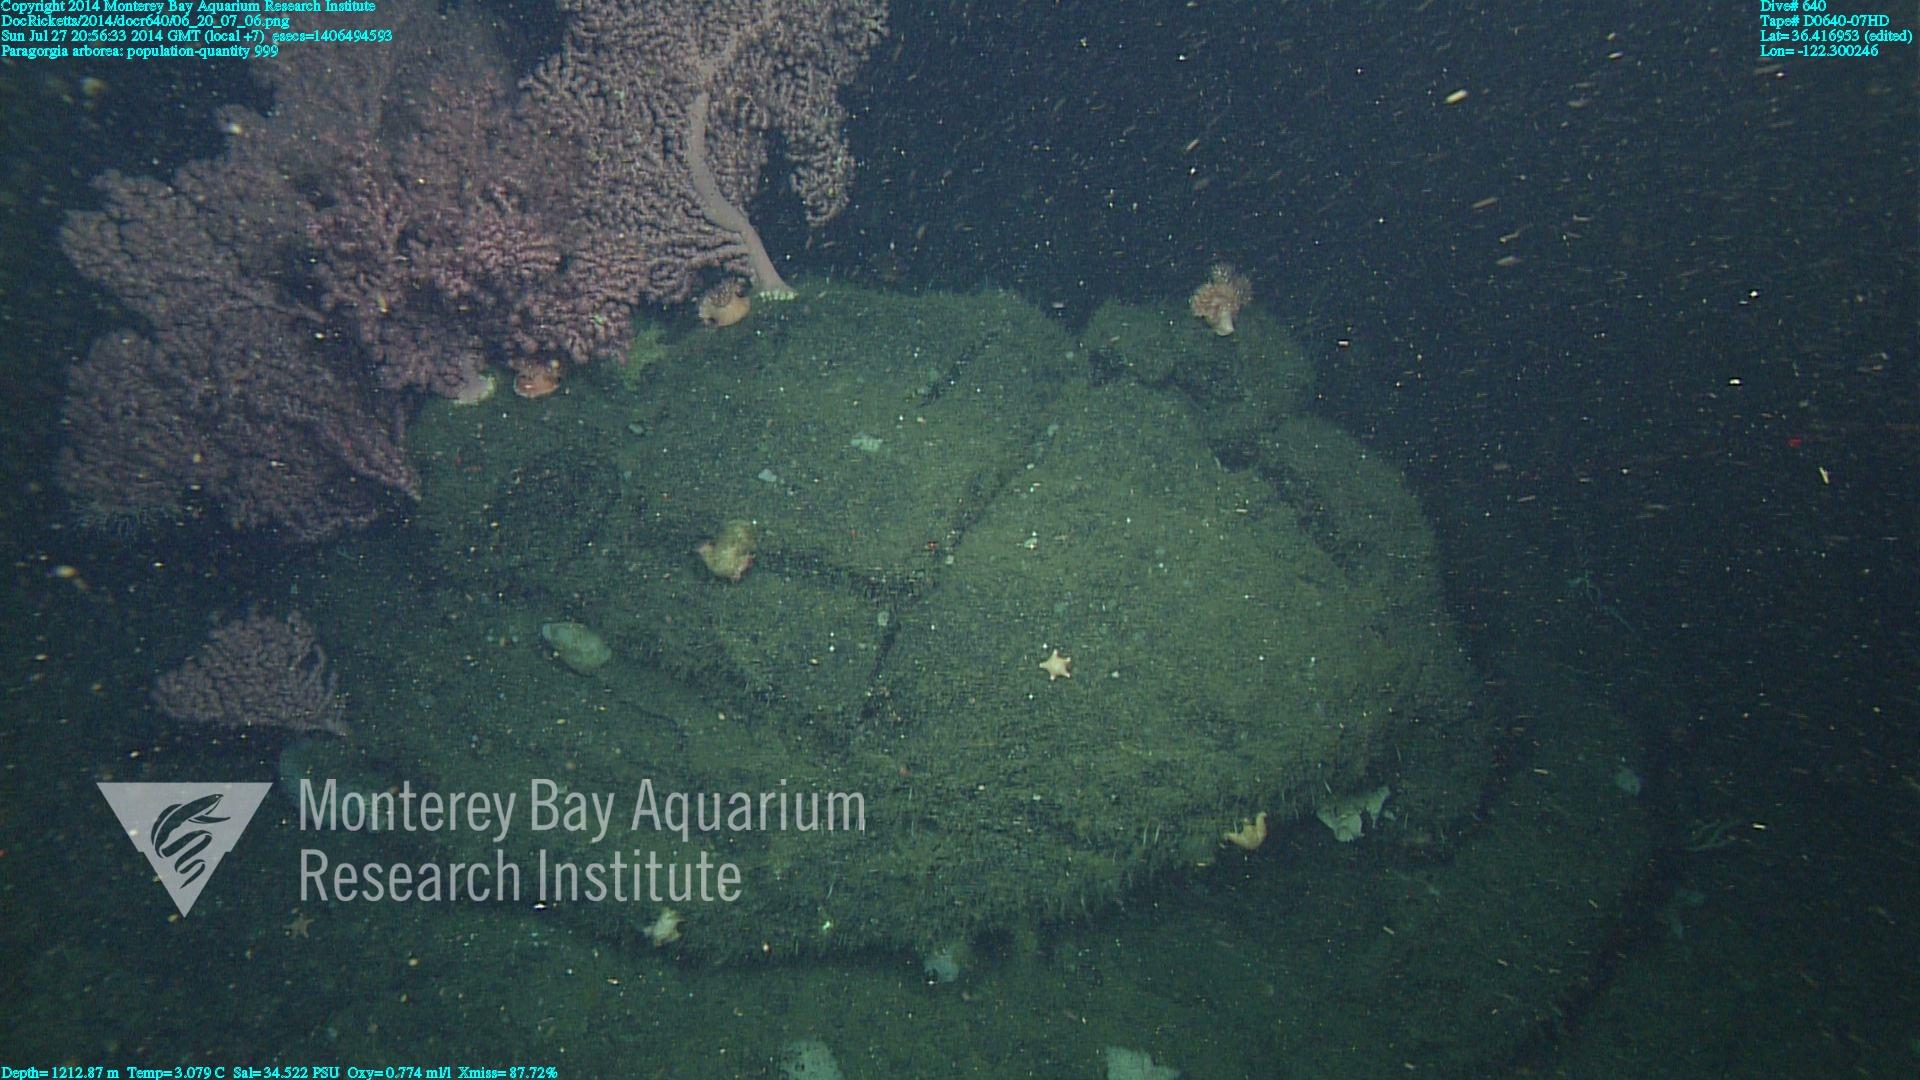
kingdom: Animalia
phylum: Cnidaria
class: Anthozoa
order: Scleralcyonacea
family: Coralliidae
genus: Paragorgia
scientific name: Paragorgia arborea
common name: Bubble gum coral
